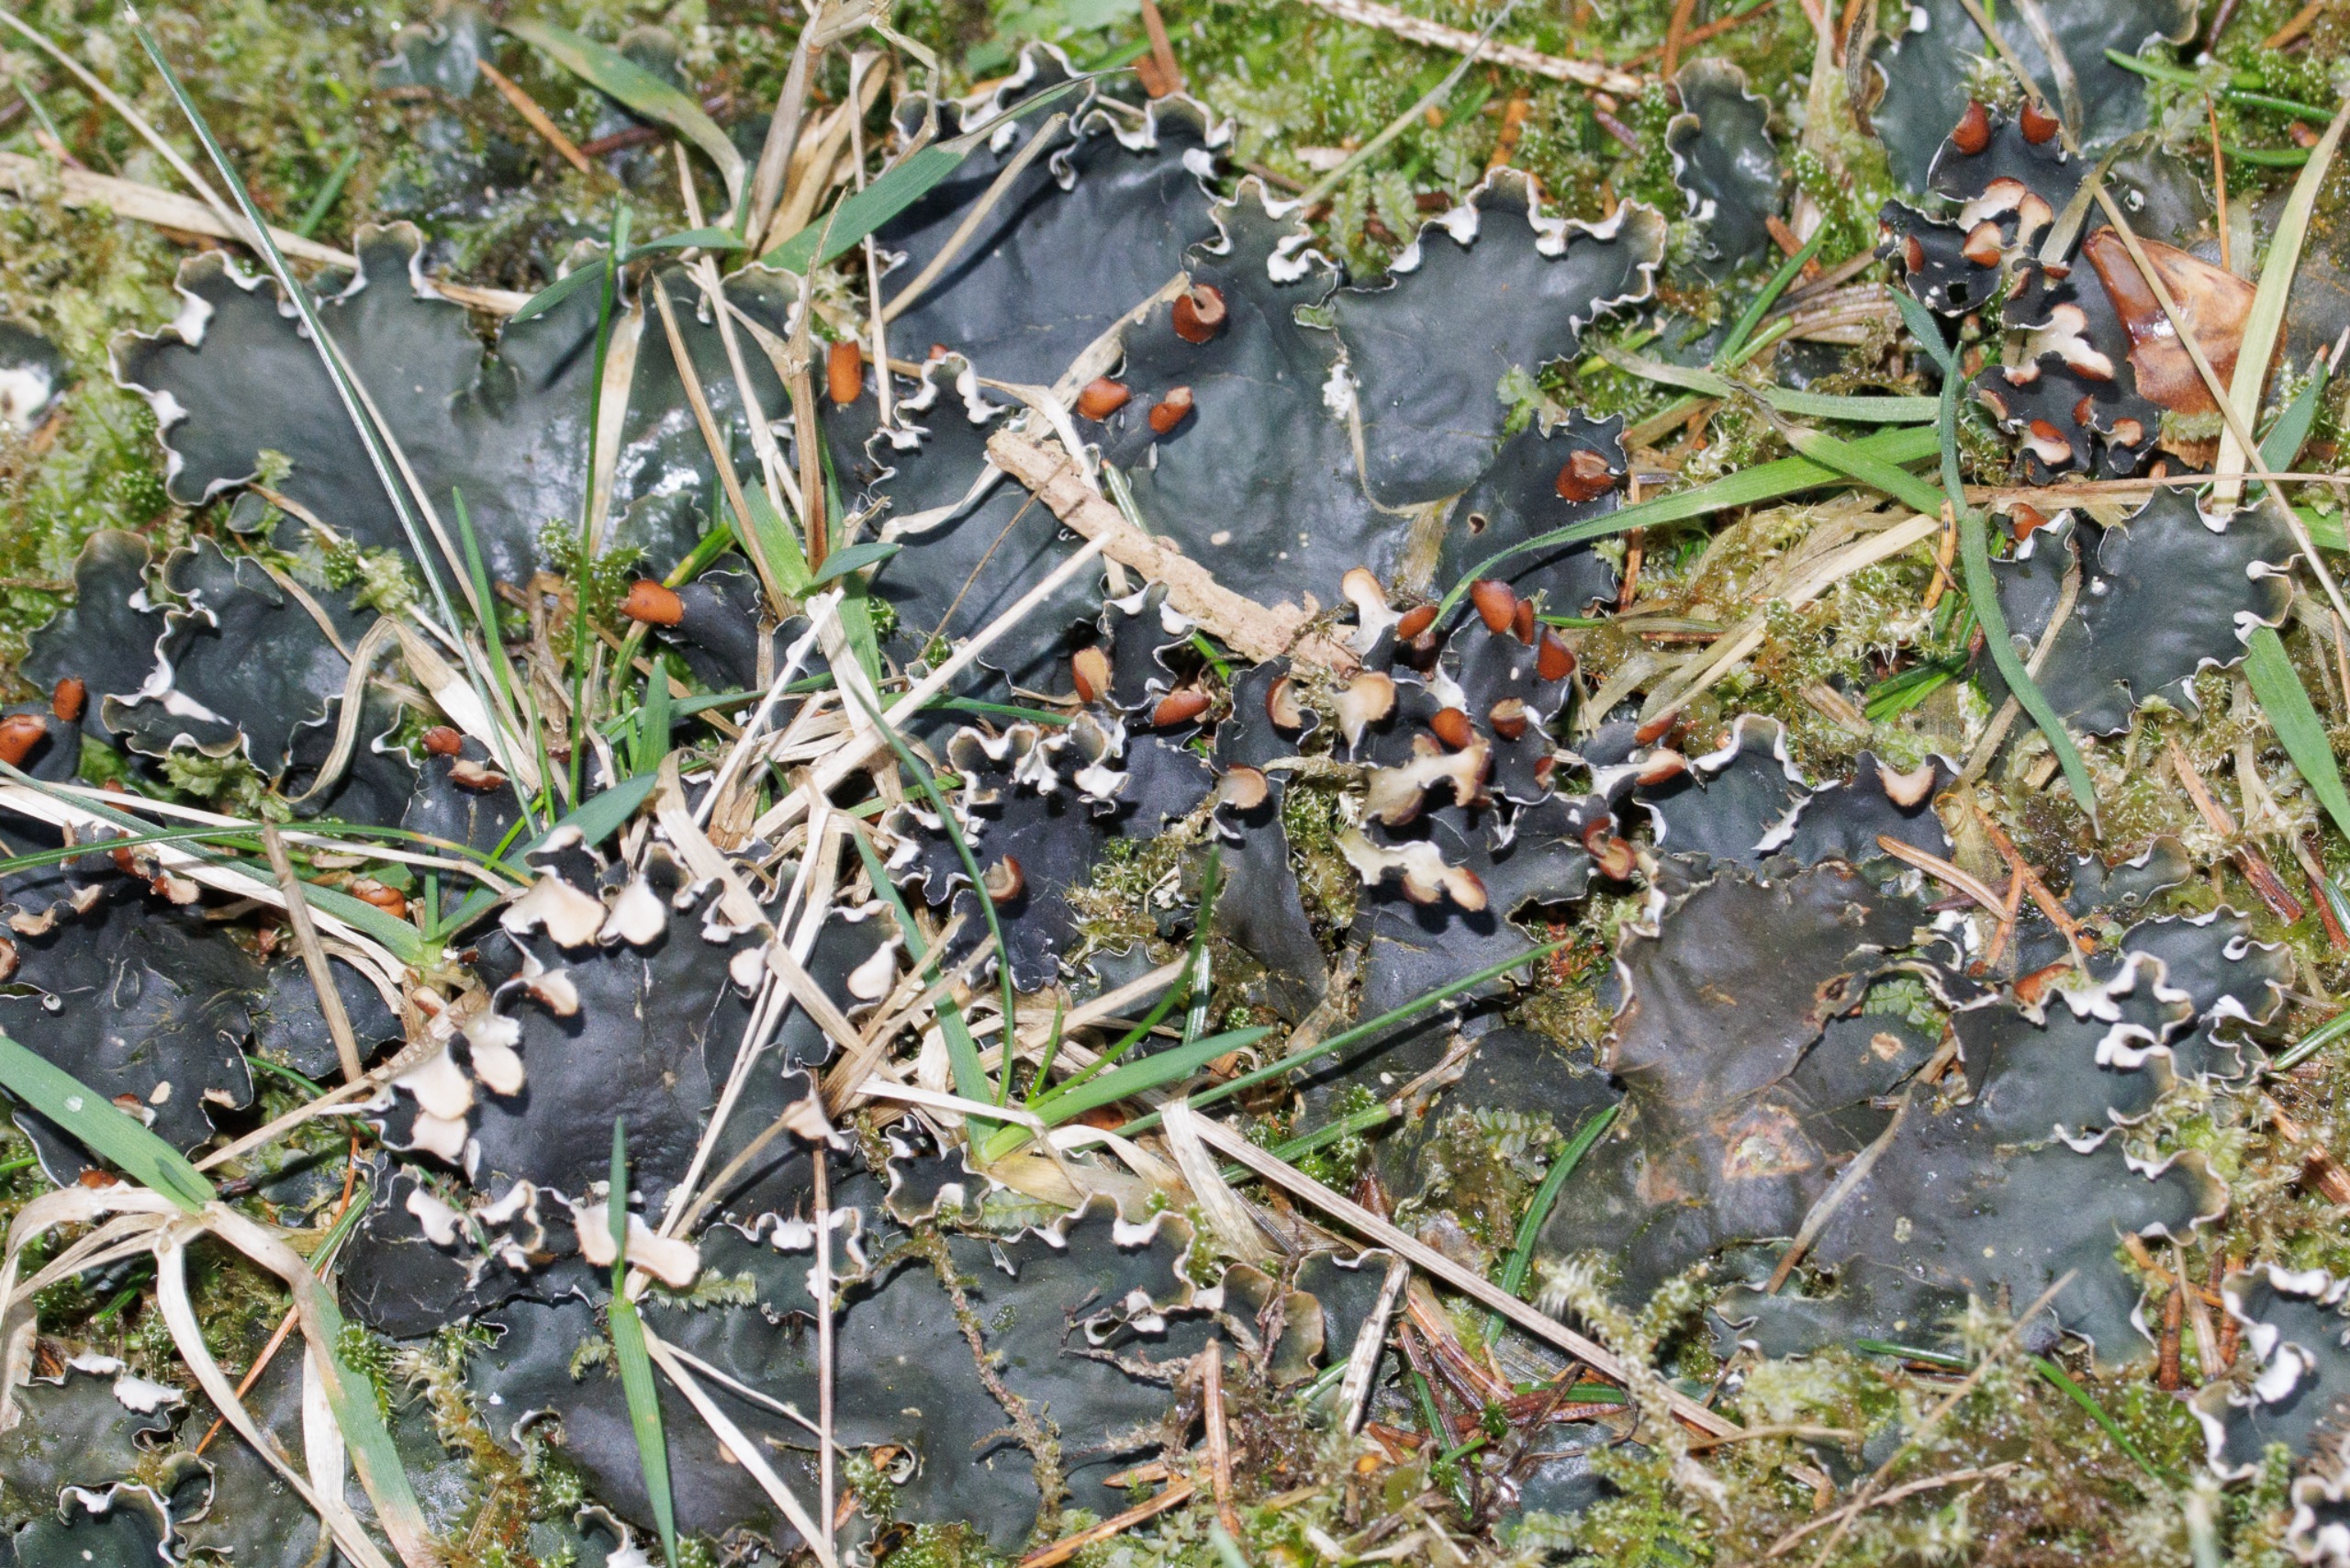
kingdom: Fungi
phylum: Ascomycota
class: Lecanoromycetes
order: Peltigerales
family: Peltigeraceae
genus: Peltigera
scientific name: Peltigera hymenina
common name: Hinde-skjoldlav
